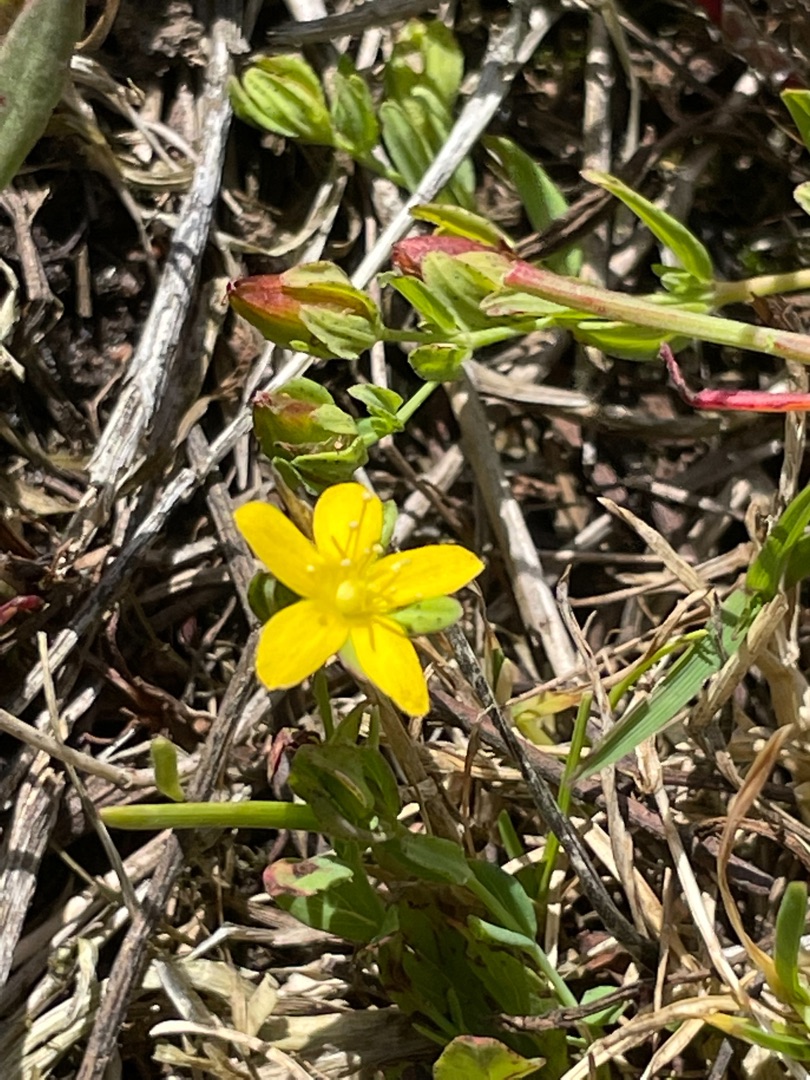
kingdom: Plantae
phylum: Tracheophyta
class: Magnoliopsida
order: Malpighiales
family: Hypericaceae
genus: Hypericum
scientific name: Hypericum humifusum
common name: Dværg-perikon
